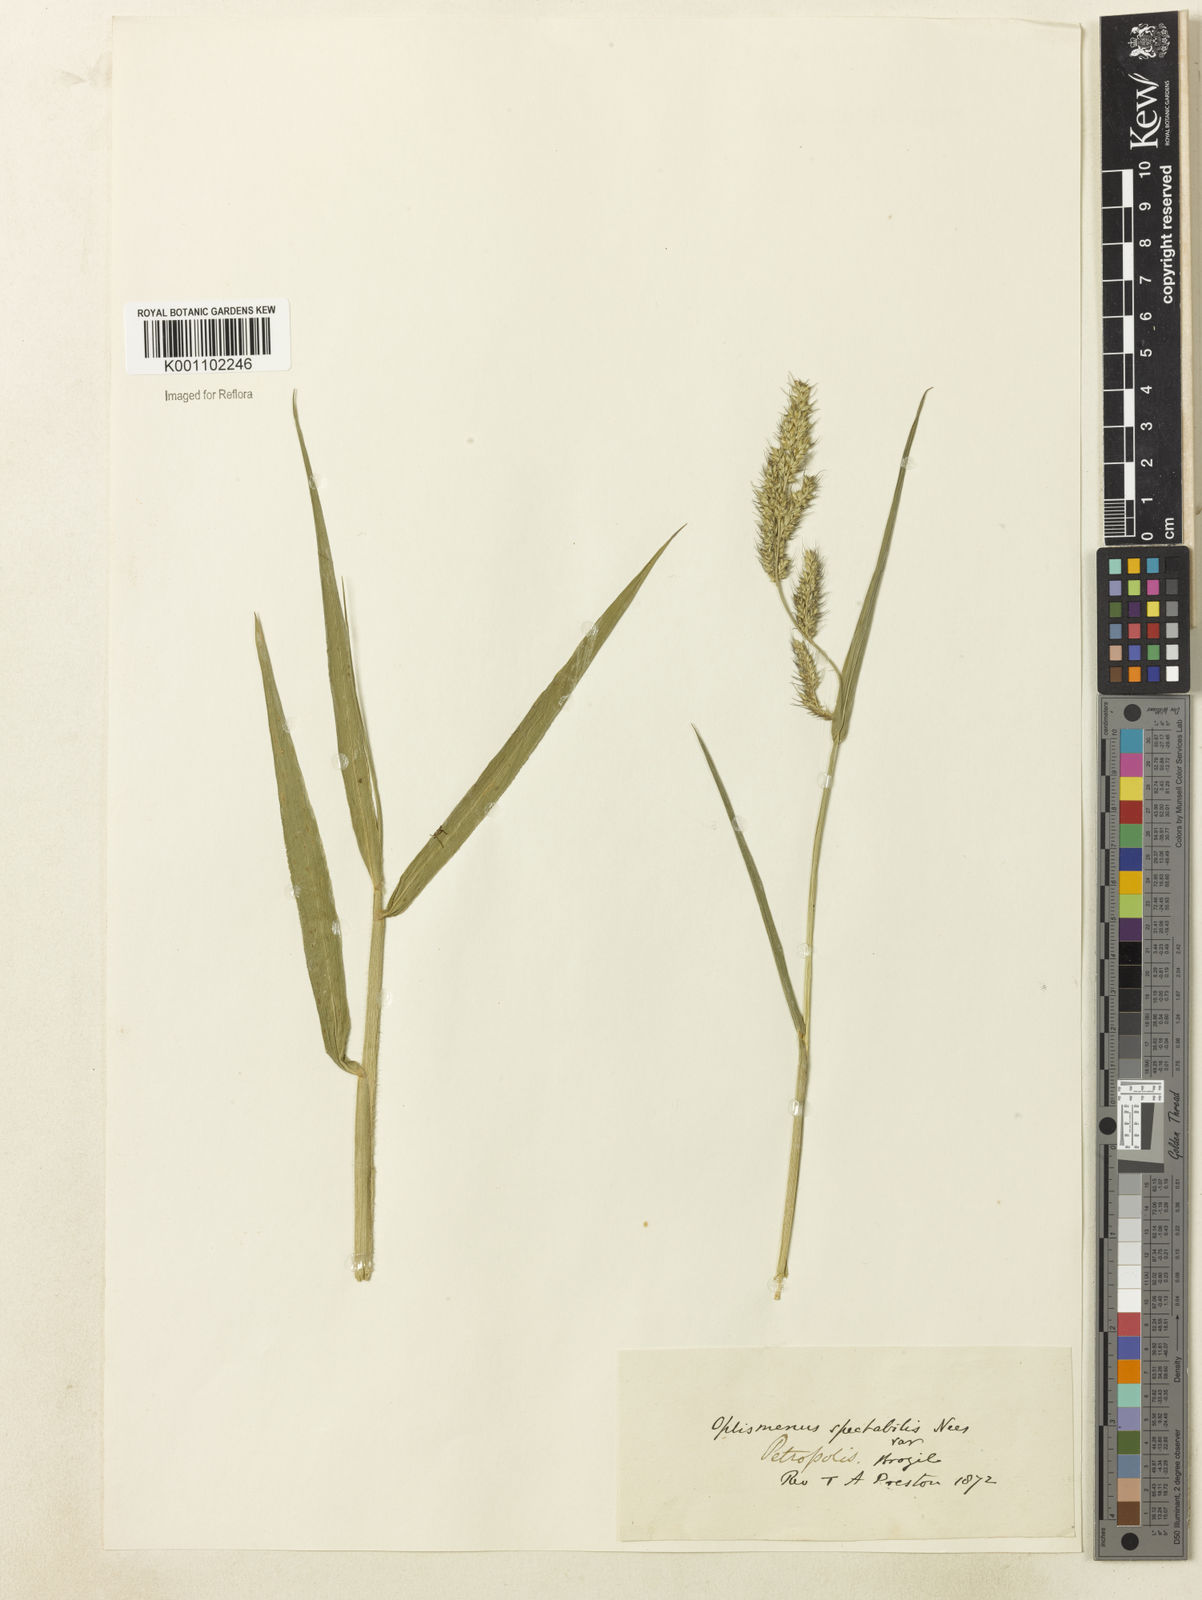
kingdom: Plantae
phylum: Tracheophyta
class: Liliopsida
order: Poales
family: Poaceae
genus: Echinochloa
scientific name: Echinochloa crus-galli
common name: Cockspur
